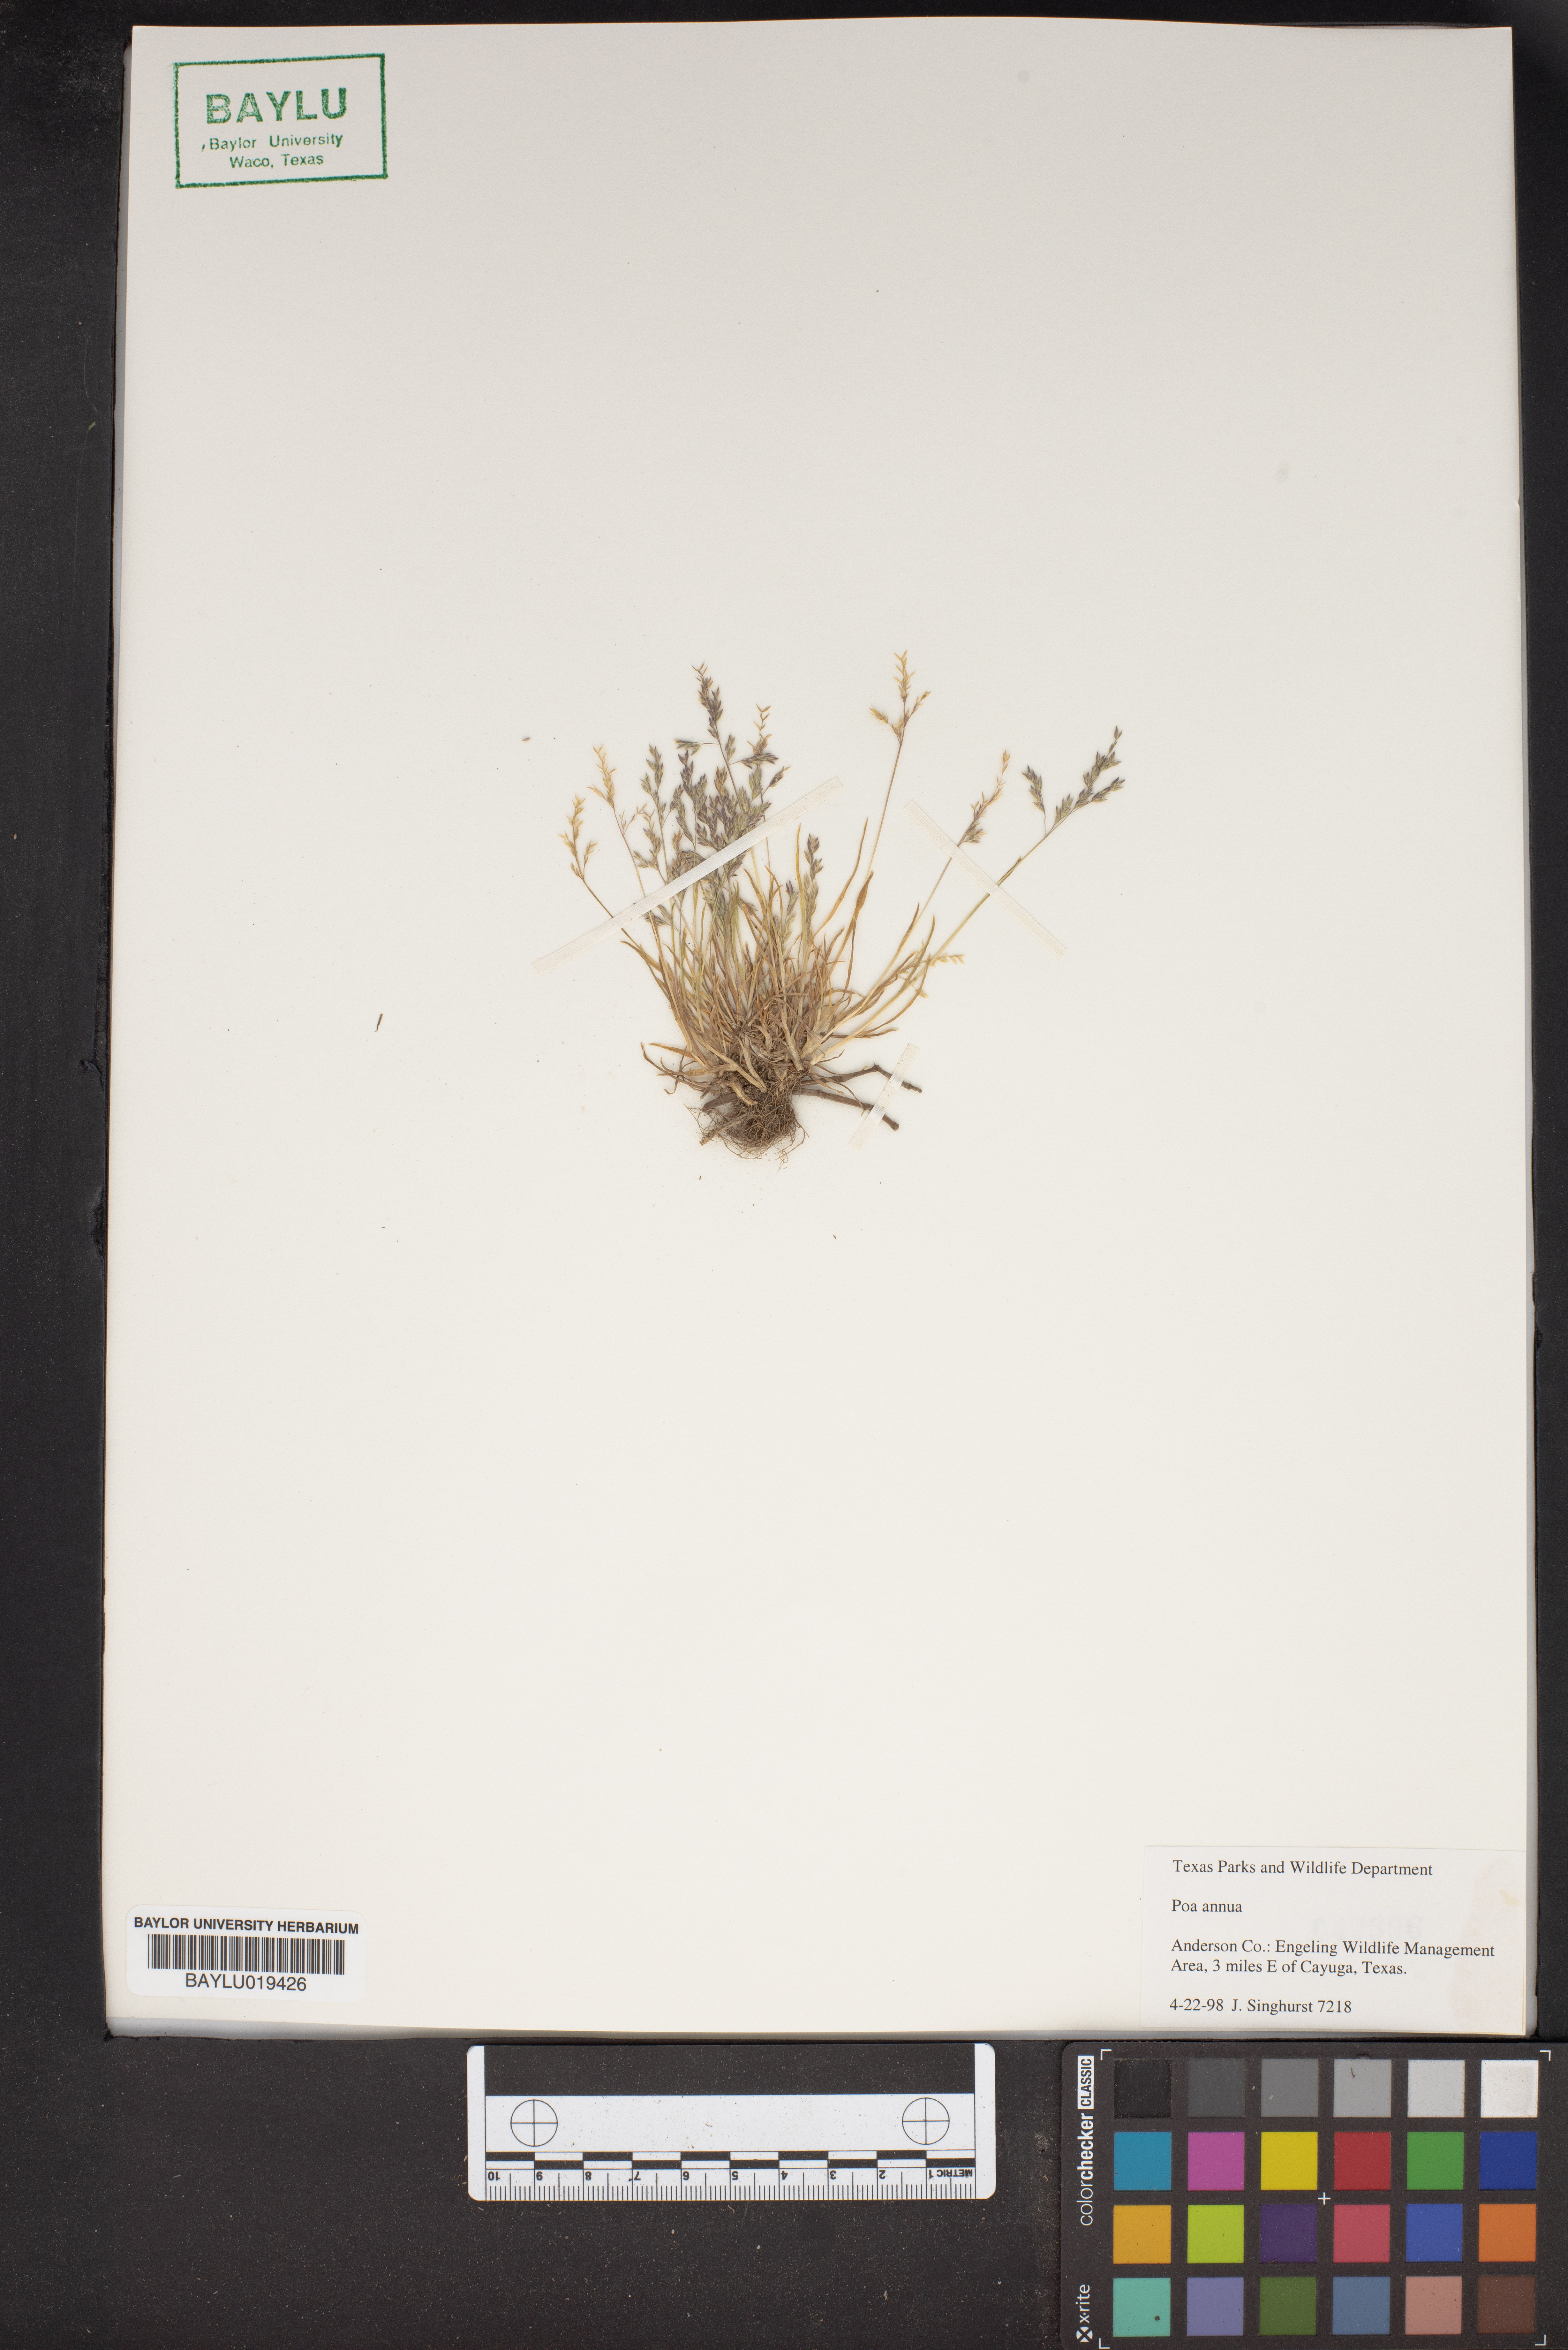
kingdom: Plantae
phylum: Tracheophyta
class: Liliopsida
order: Poales
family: Poaceae
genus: Poa
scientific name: Poa annua
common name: Annual bluegrass
